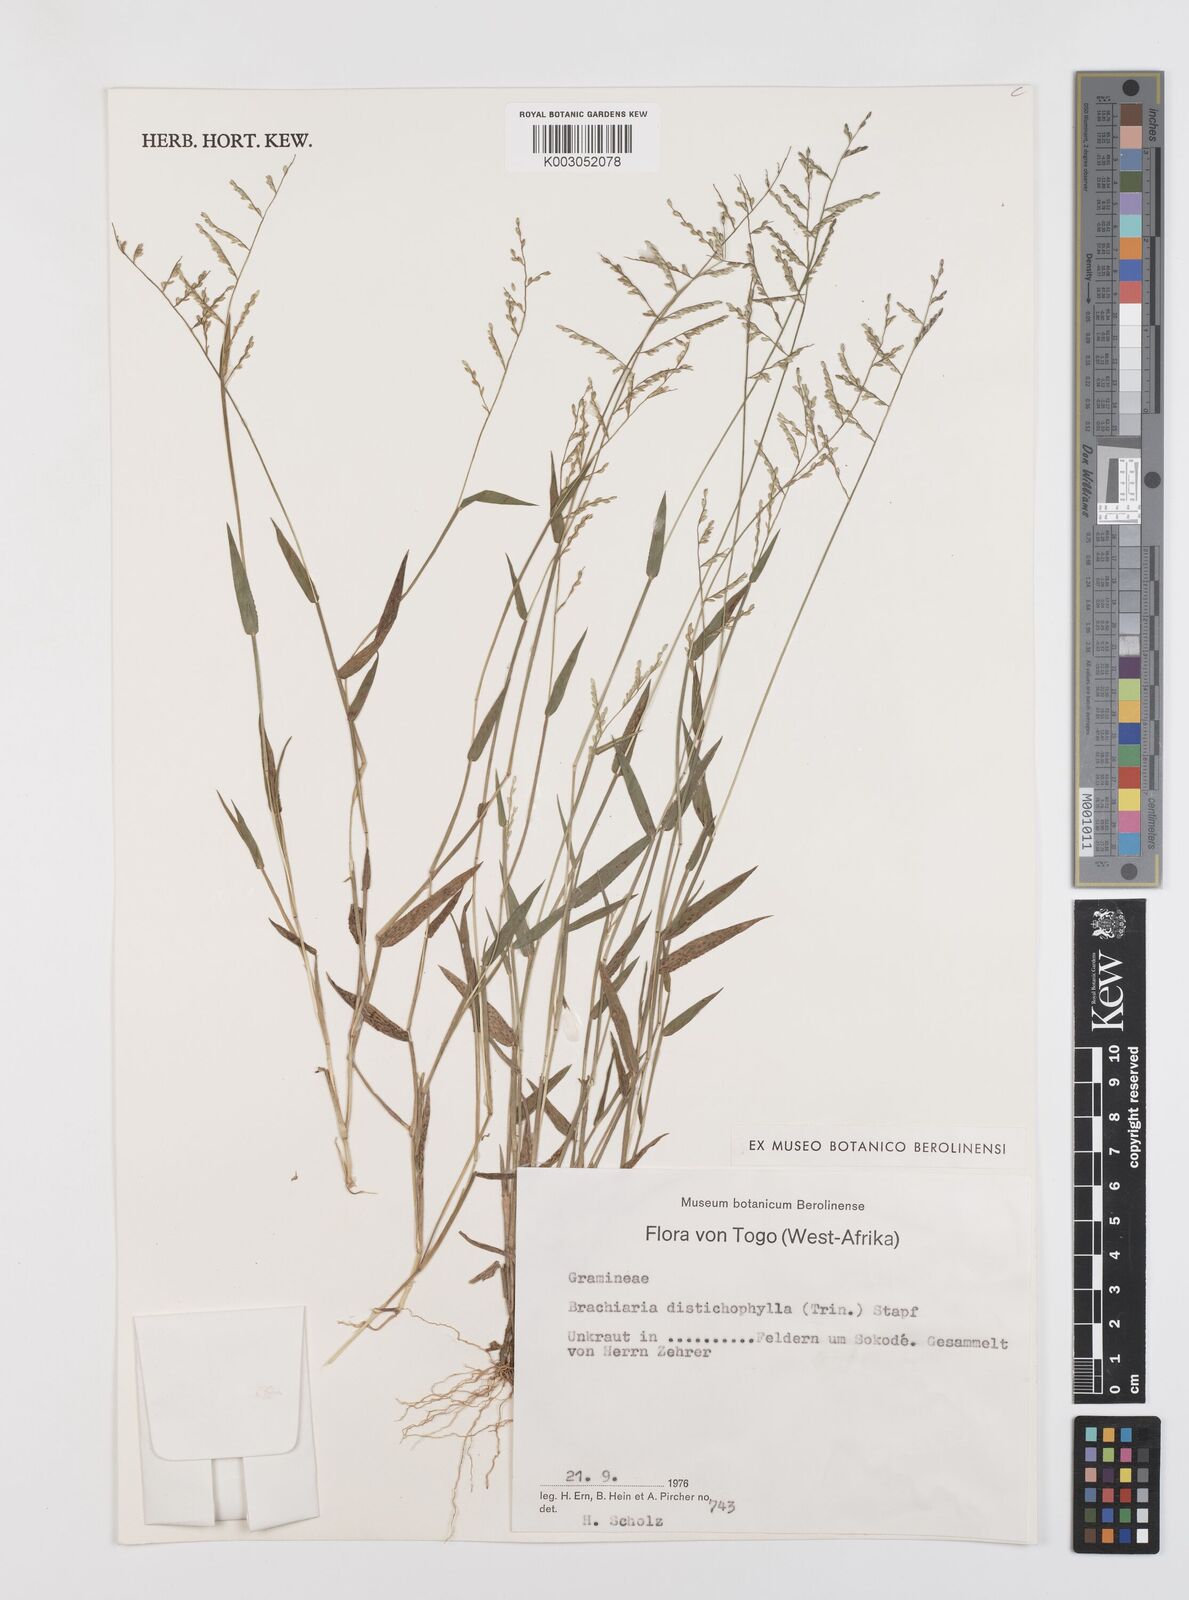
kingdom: Plantae
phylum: Tracheophyta
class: Liliopsida
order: Poales
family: Poaceae
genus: Urochloa
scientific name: Urochloa villosa
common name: Hairy signalgrass
